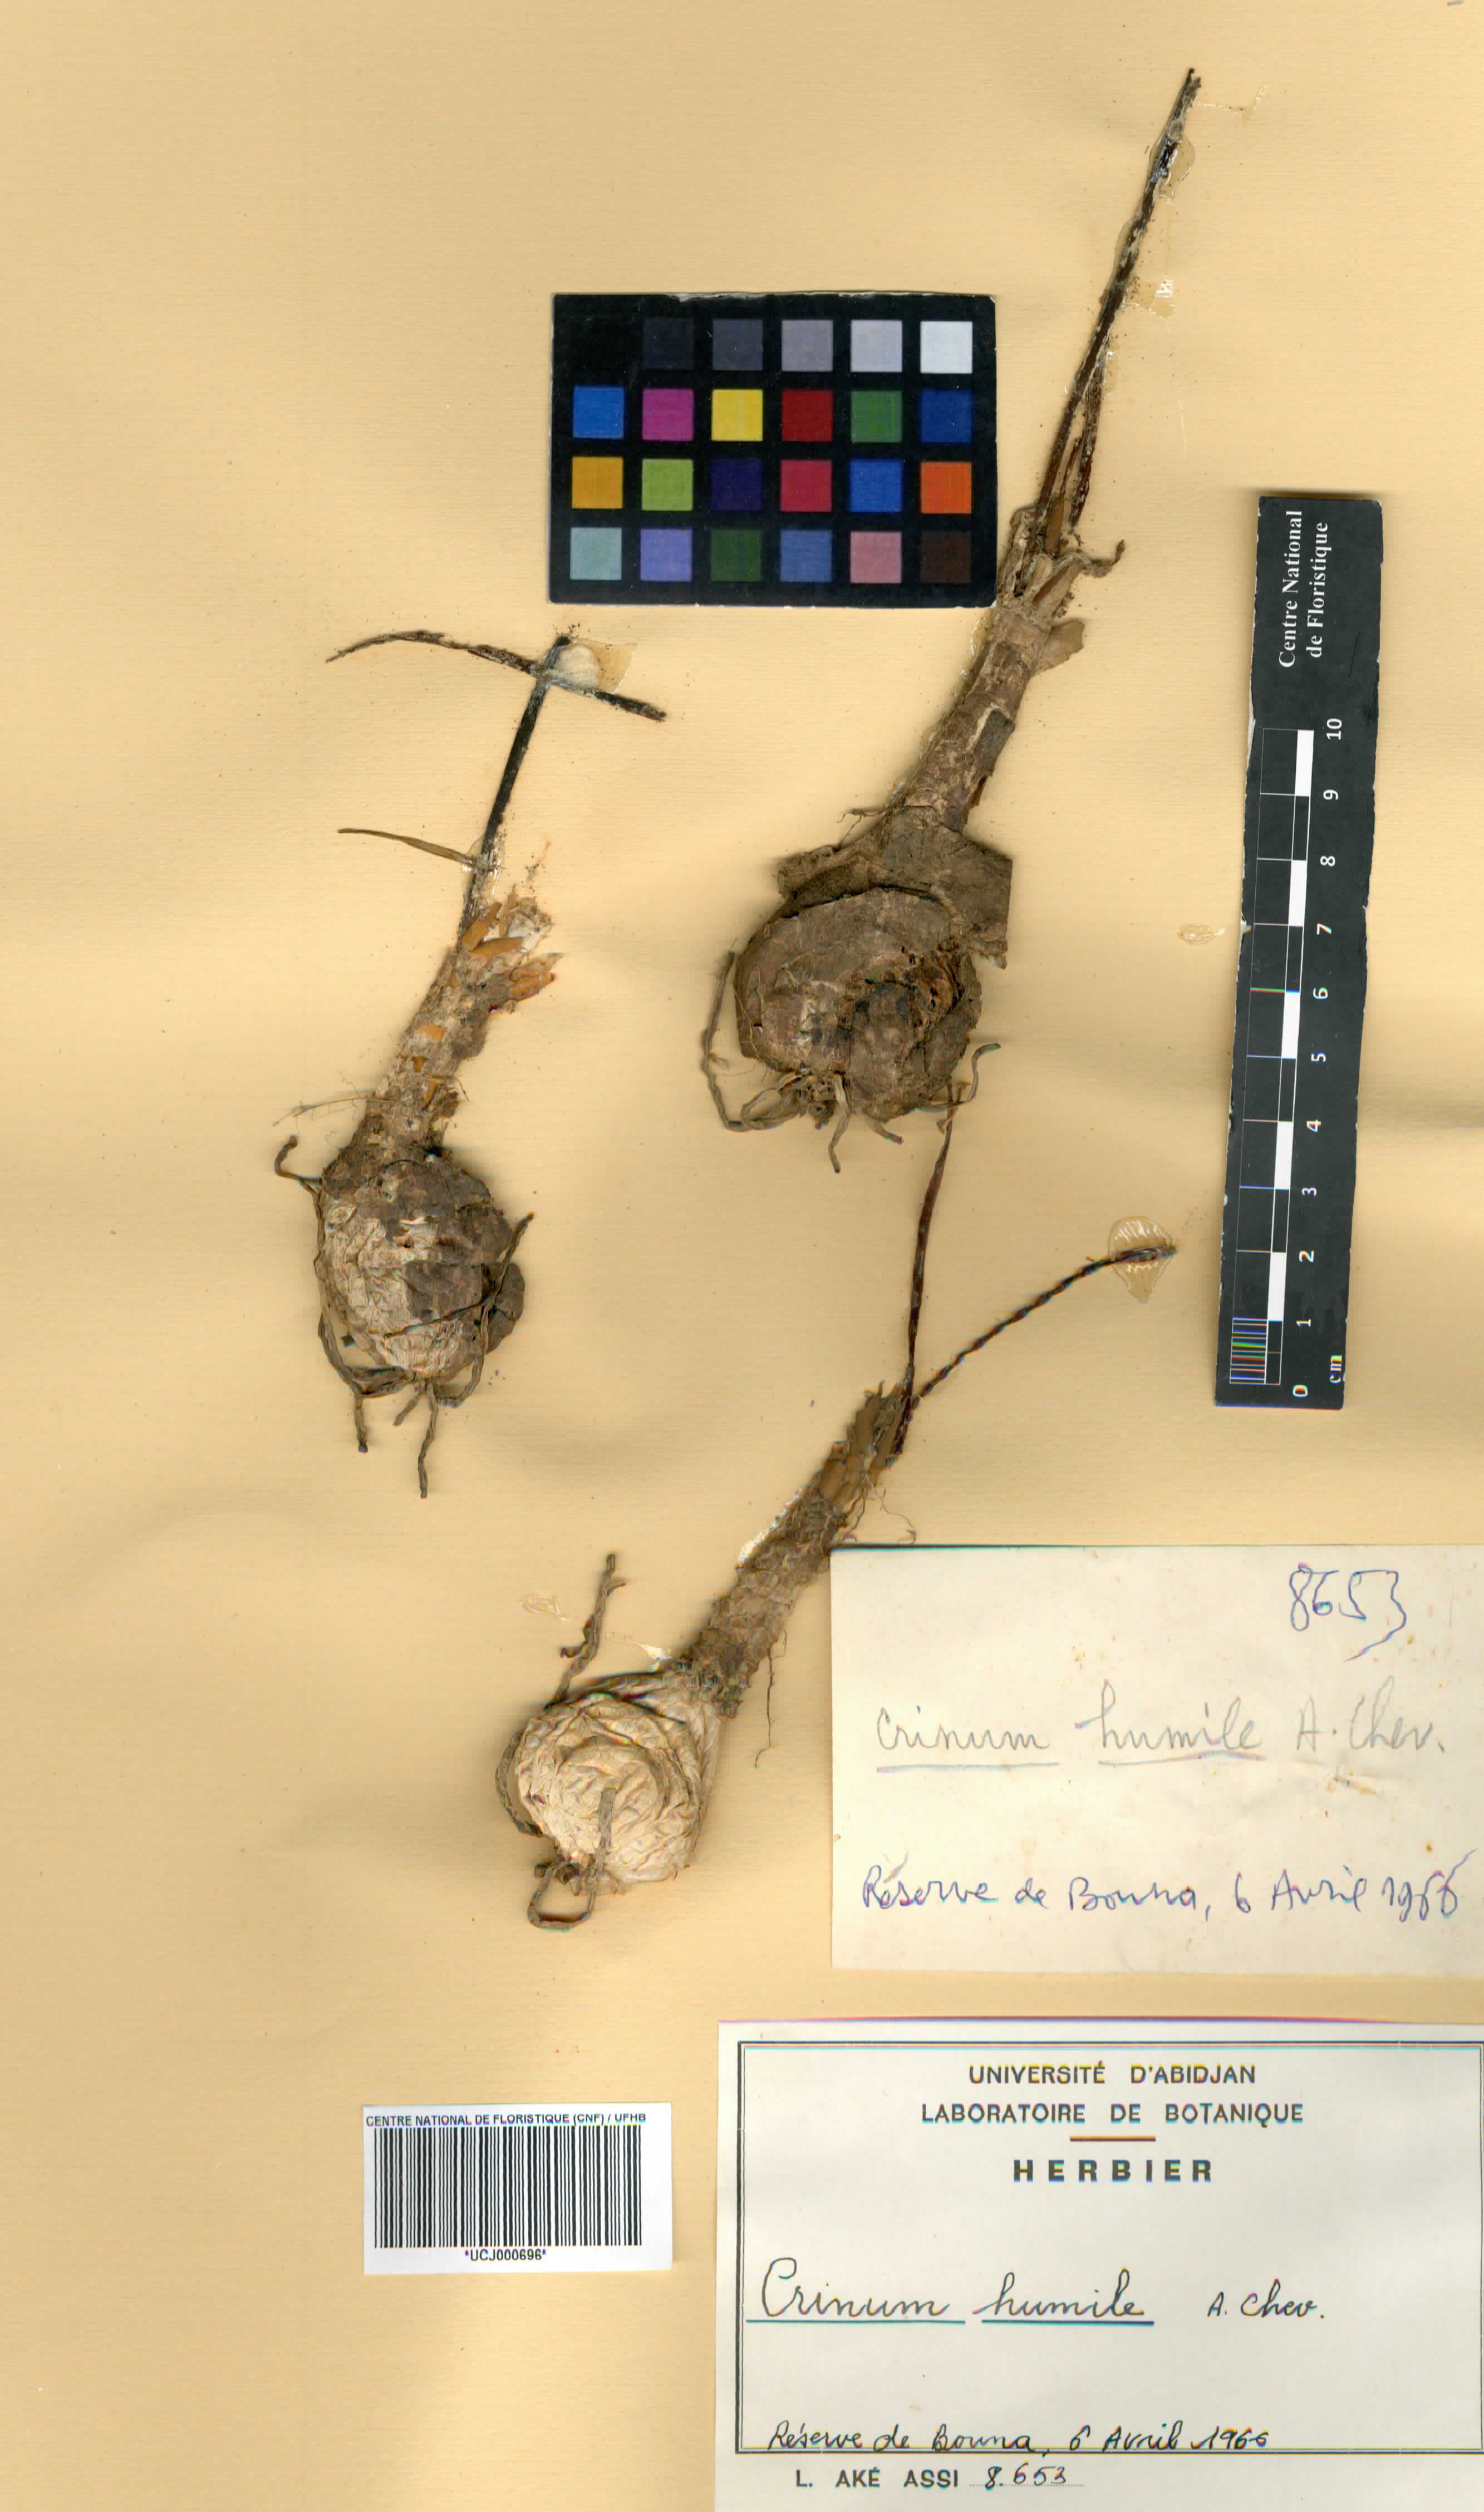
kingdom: Plantae
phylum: Tracheophyta
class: Liliopsida
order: Asparagales
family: Amaryllidaceae
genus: Crinum
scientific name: Crinum nubicum
